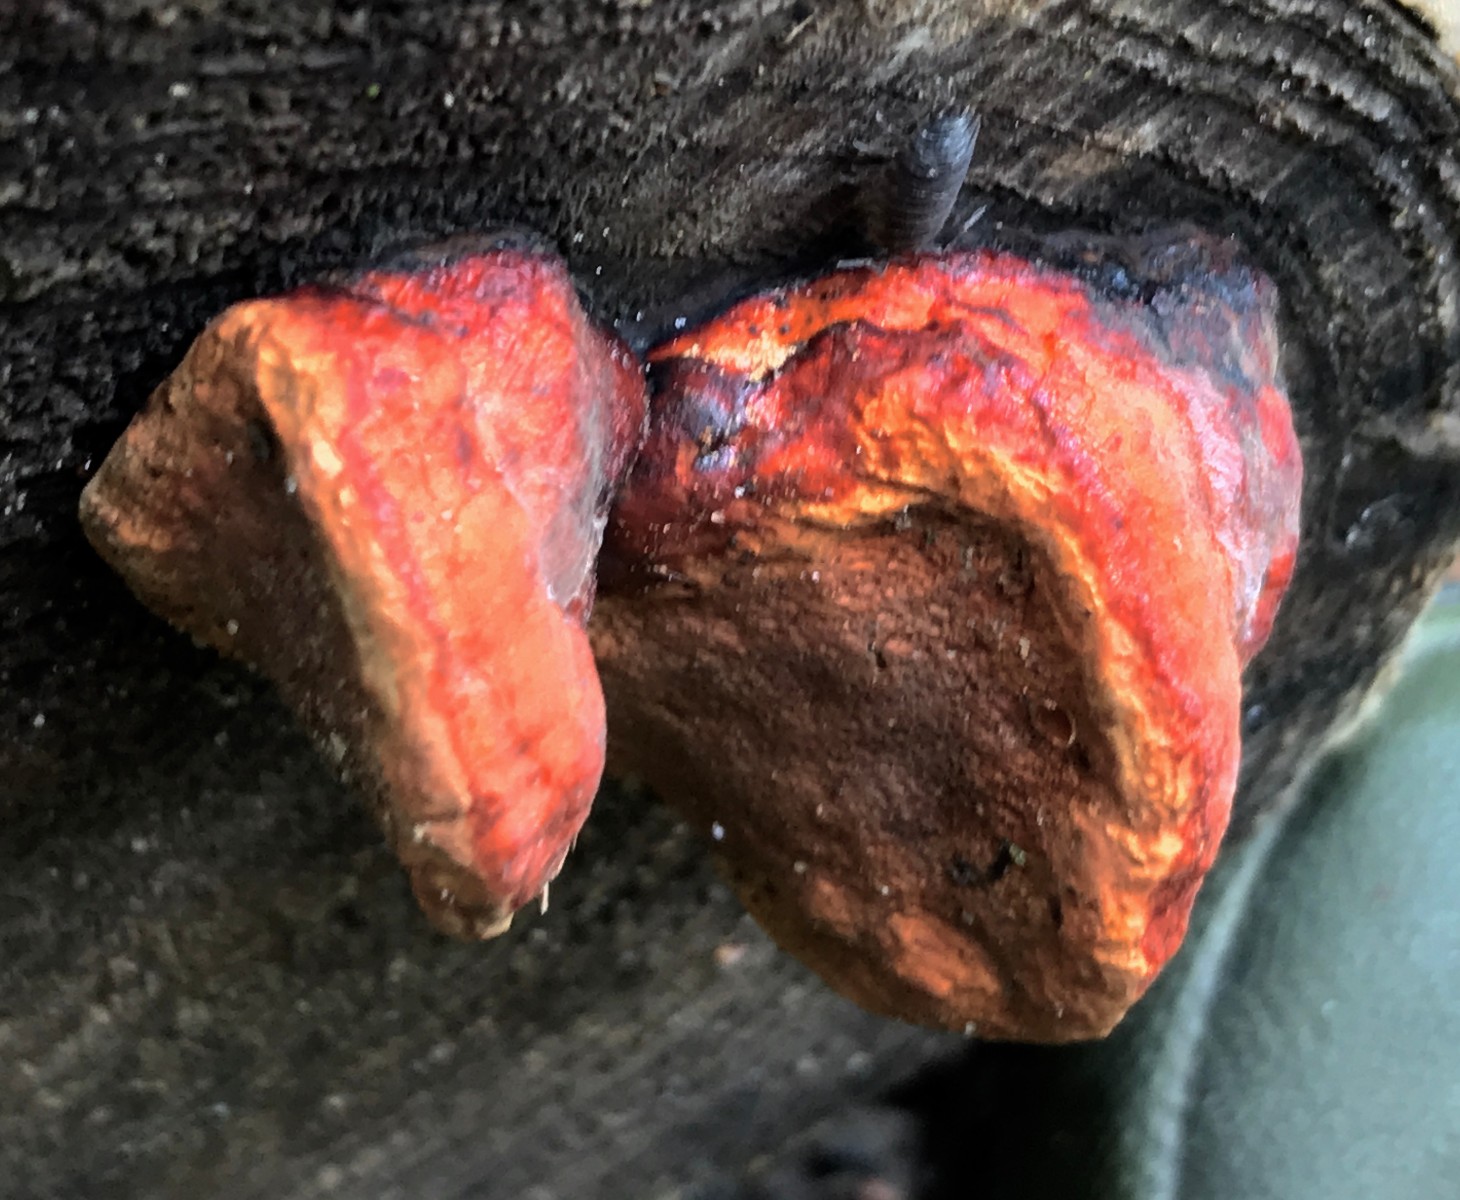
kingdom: Fungi
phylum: Basidiomycota
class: Agaricomycetes
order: Polyporales
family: Fomitopsidaceae
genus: Fomitopsis
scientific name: Fomitopsis pinicola
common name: randbæltet hovporesvamp
